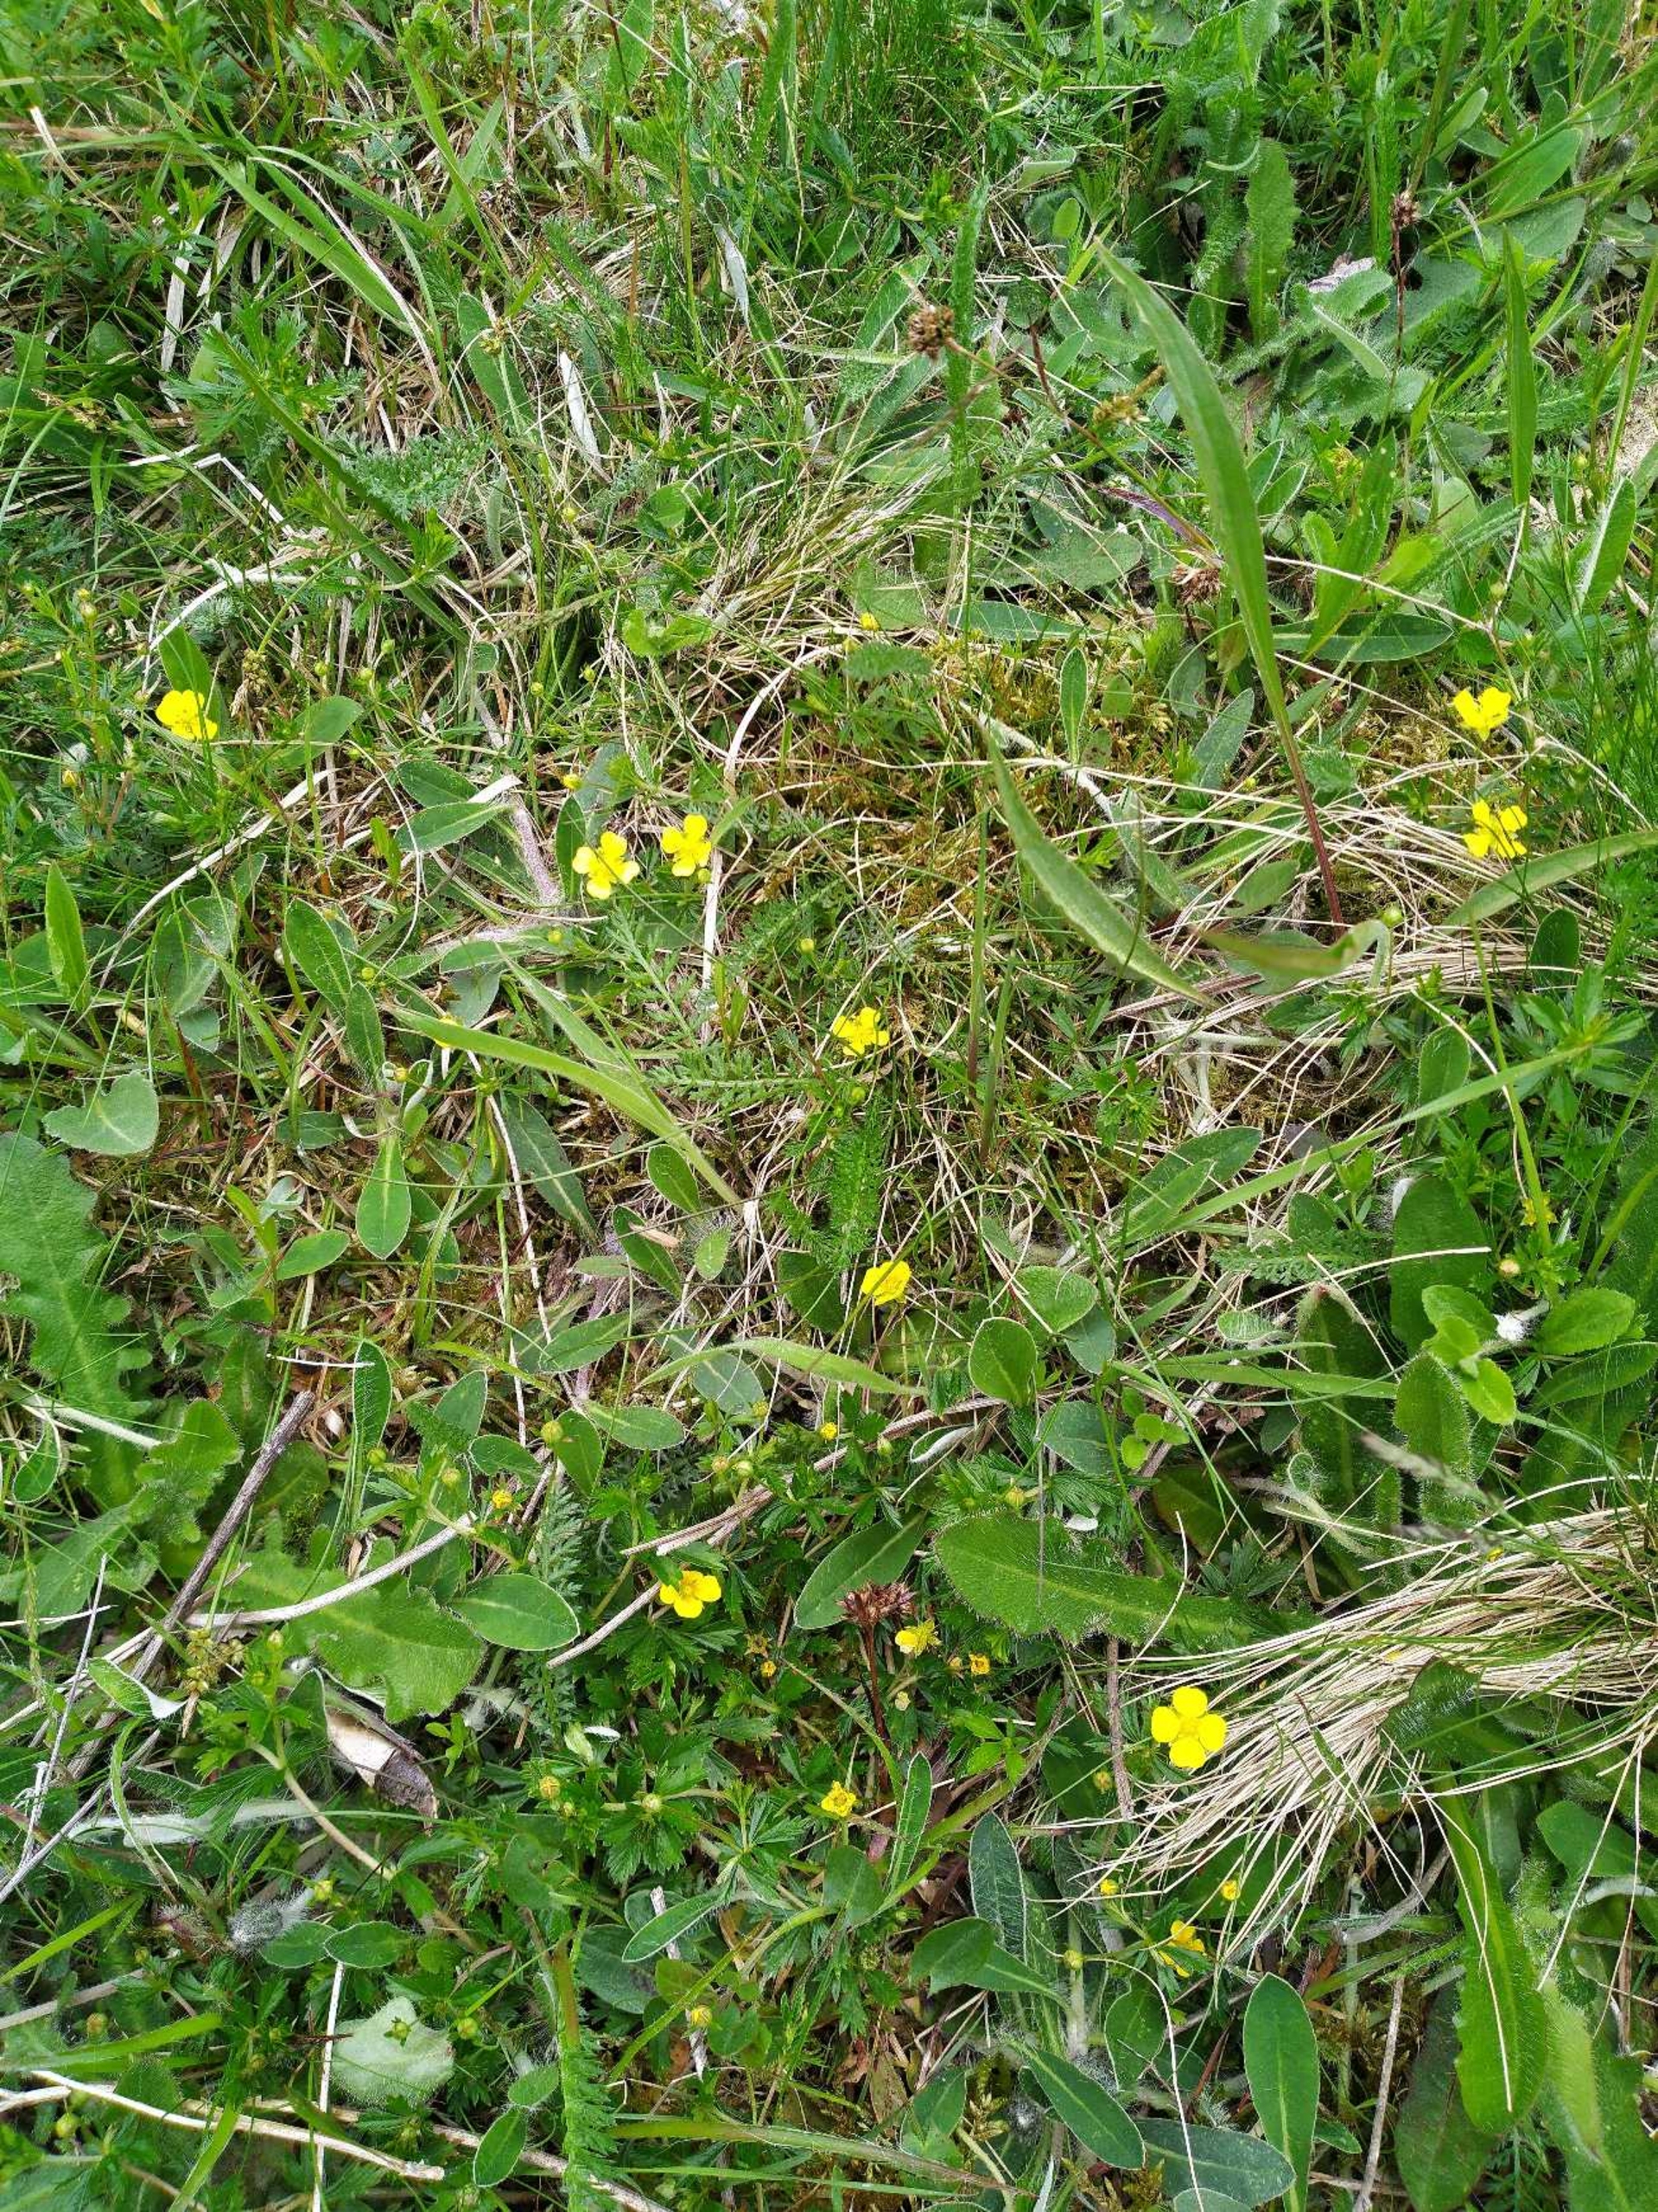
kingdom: Plantae
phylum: Tracheophyta
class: Magnoliopsida
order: Rosales
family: Rosaceae
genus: Potentilla
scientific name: Potentilla erecta
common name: Tormentil
